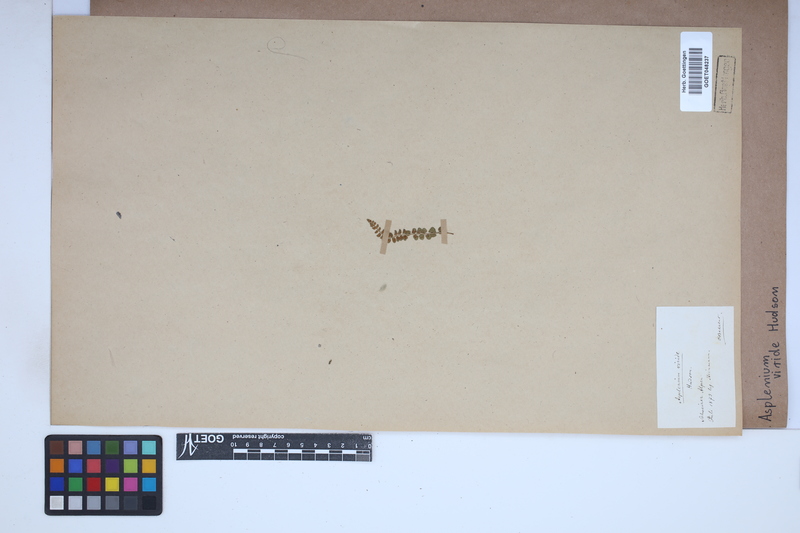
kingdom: Plantae
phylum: Tracheophyta
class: Polypodiopsida
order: Polypodiales
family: Aspleniaceae
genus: Asplenium
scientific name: Asplenium viride
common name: Green spleenwort
